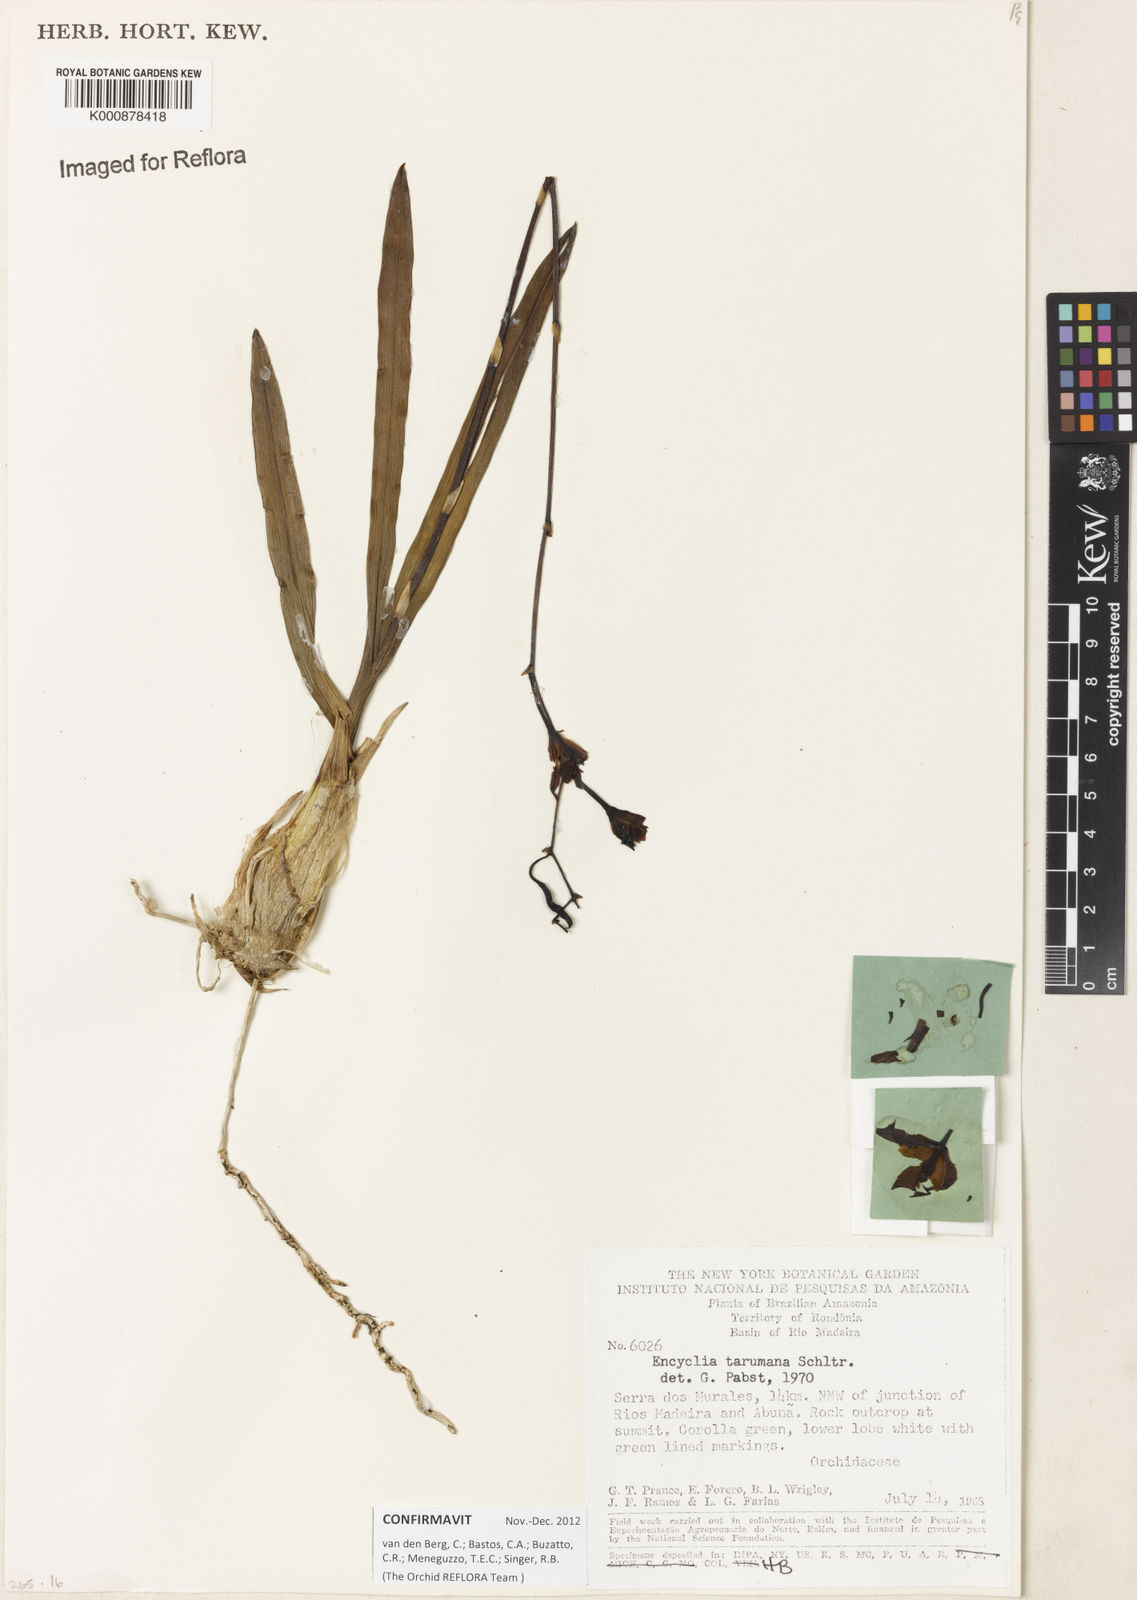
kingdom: Plantae
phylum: Tracheophyta
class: Liliopsida
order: Asparagales
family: Orchidaceae
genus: Encyclia
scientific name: Encyclia mapuerae
